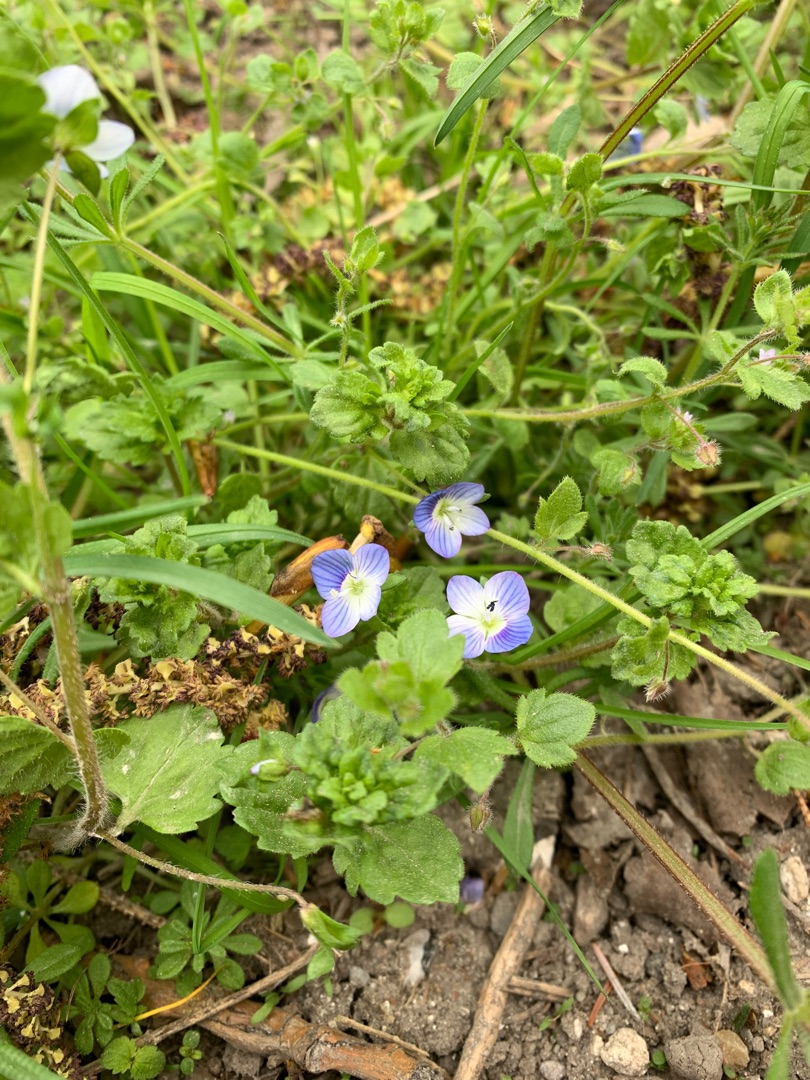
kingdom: Plantae
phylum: Tracheophyta
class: Magnoliopsida
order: Lamiales
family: Plantaginaceae
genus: Veronica
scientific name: Veronica persica
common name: Storkronet ærenpris
